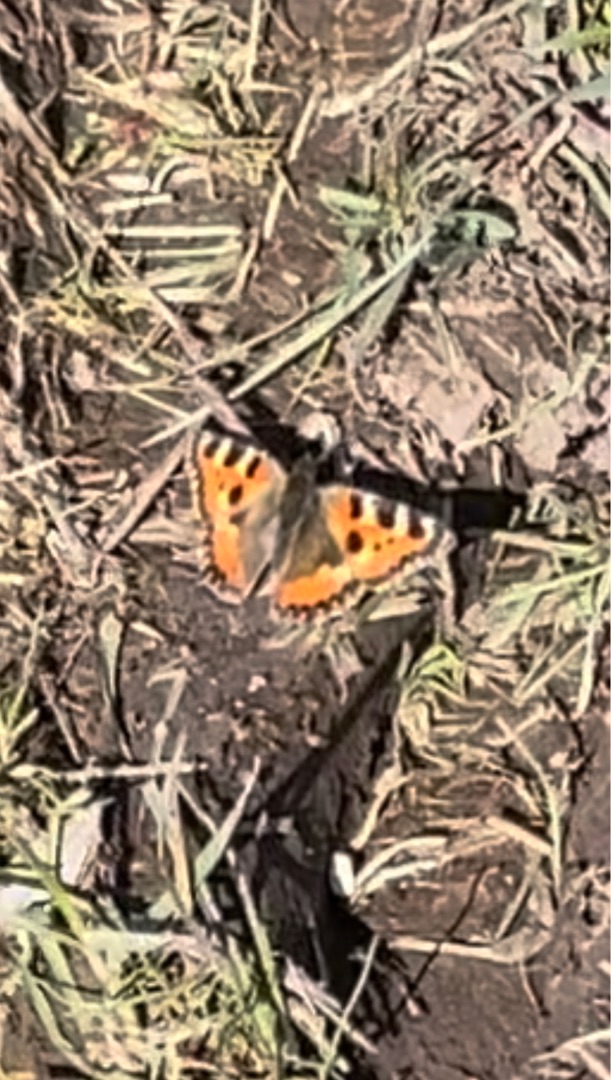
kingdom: Animalia
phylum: Arthropoda
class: Insecta
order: Lepidoptera
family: Nymphalidae
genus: Aglais
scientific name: Aglais urticae
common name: Nældens takvinge
